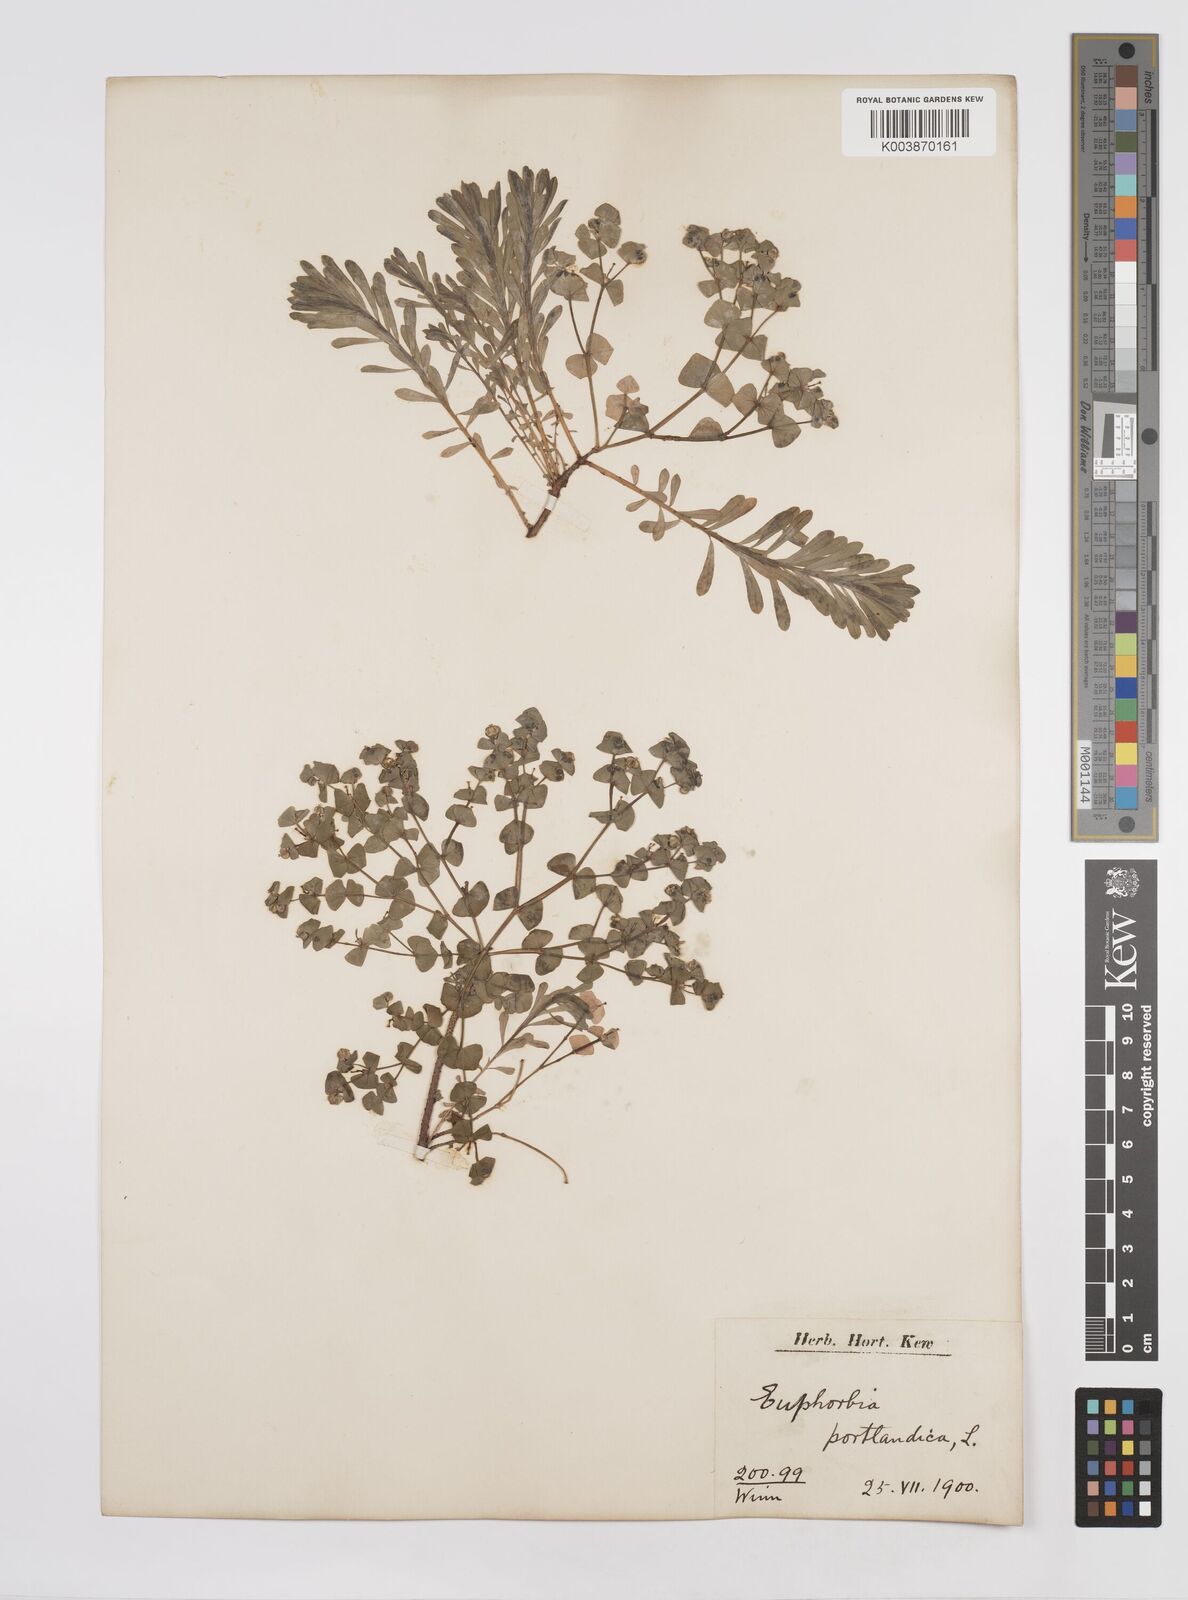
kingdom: Plantae
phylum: Tracheophyta
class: Magnoliopsida
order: Malpighiales
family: Euphorbiaceae
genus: Euphorbia
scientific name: Euphorbia portlandica
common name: Portland spurge
